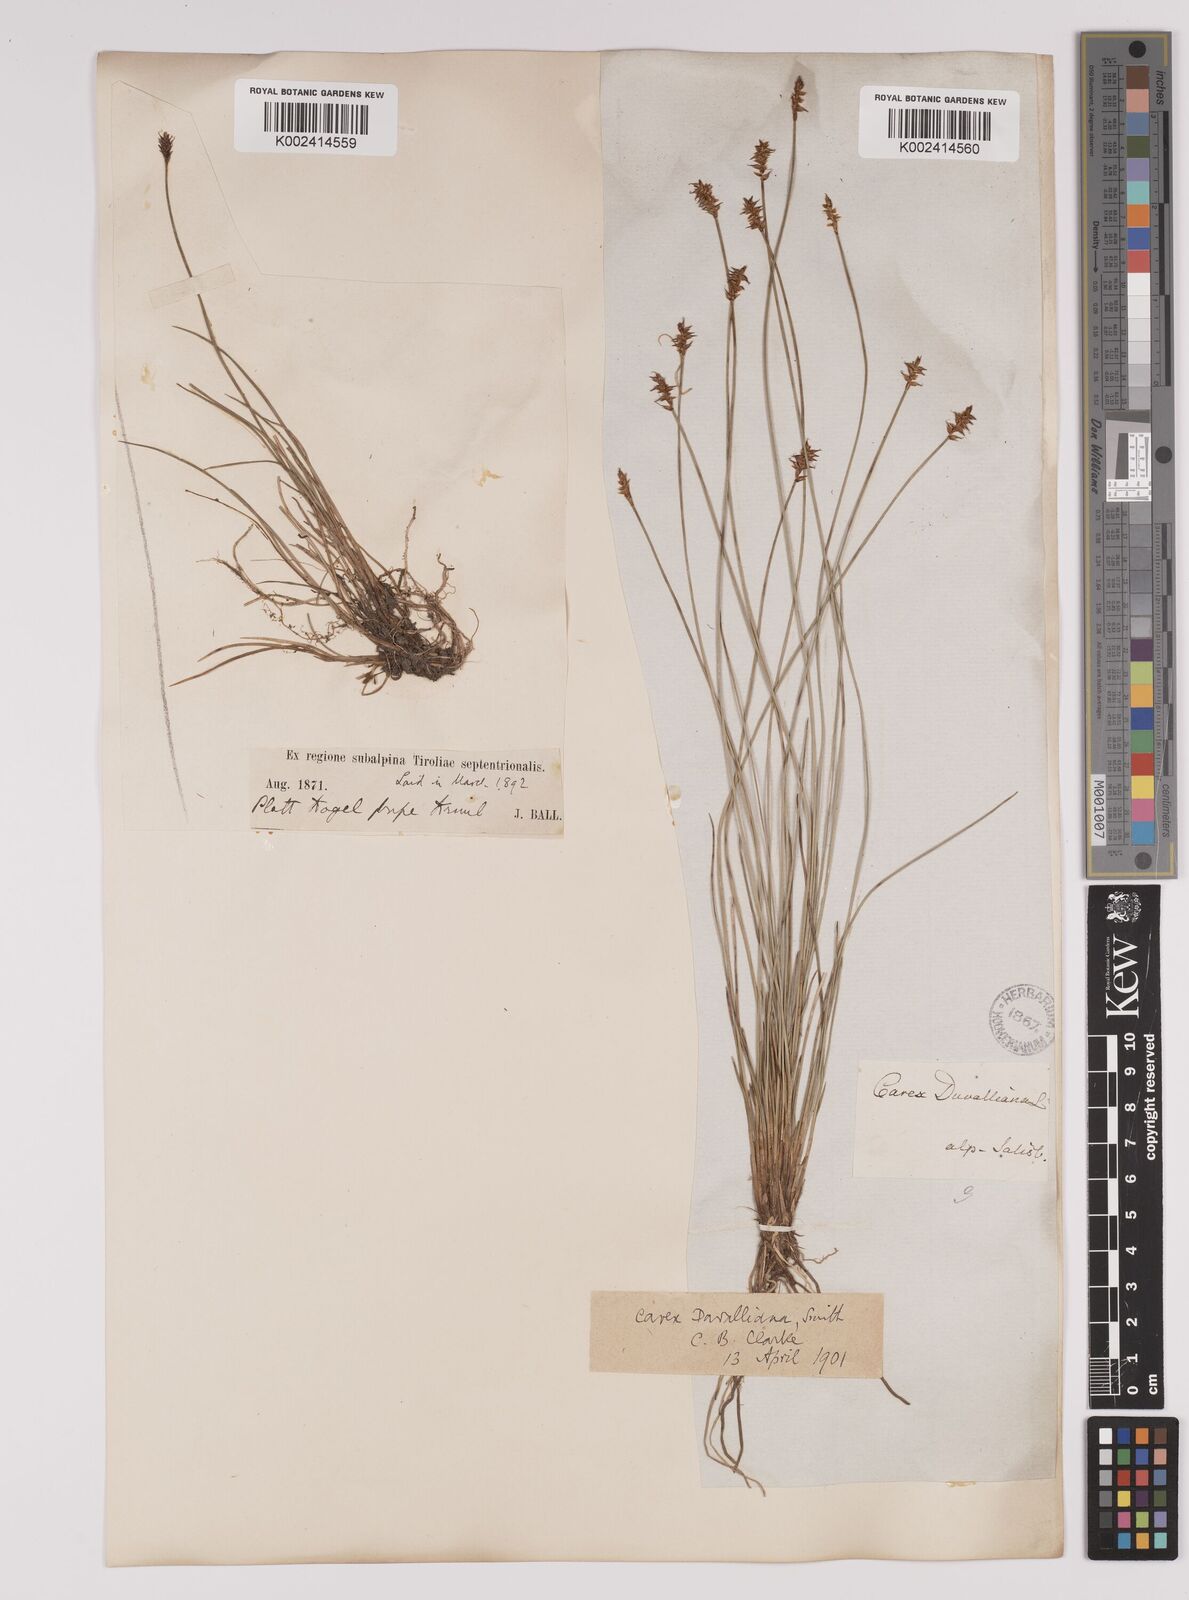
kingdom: Plantae
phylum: Tracheophyta
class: Liliopsida
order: Poales
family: Cyperaceae
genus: Carex
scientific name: Carex davalliana
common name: Davall's sedge
